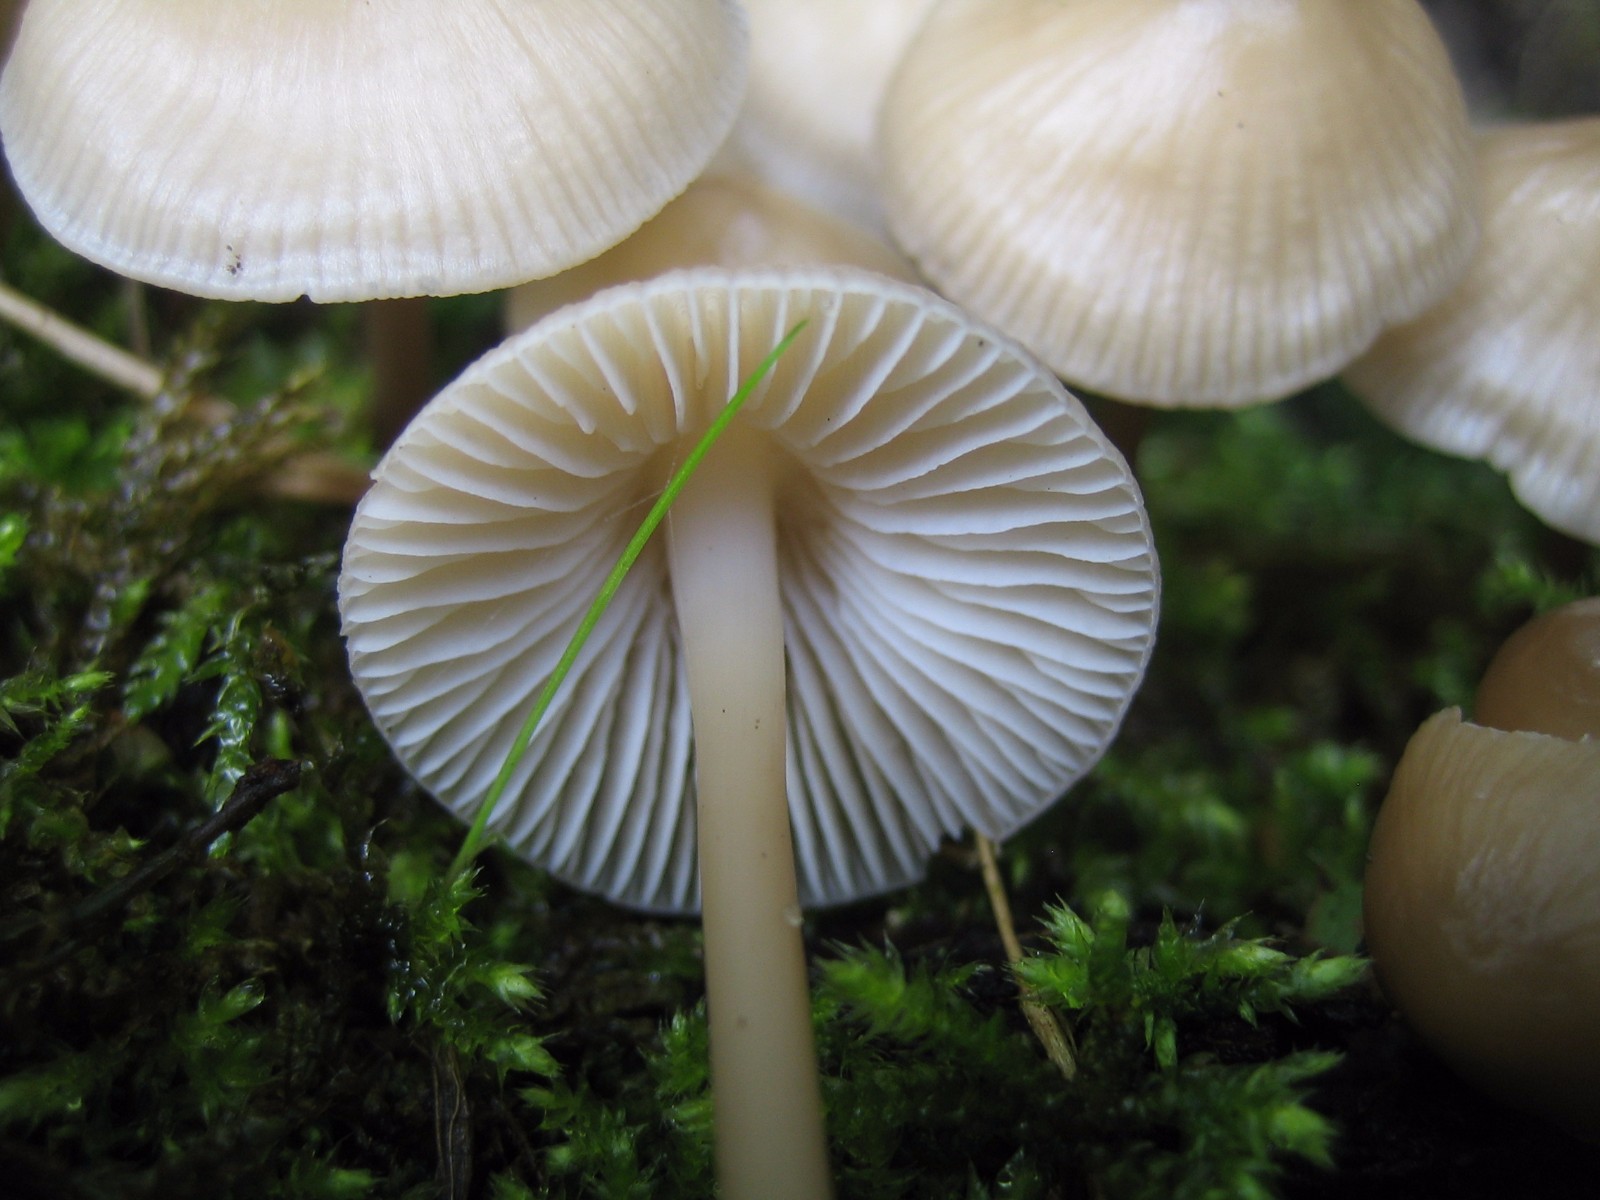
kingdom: Fungi
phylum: Basidiomycota
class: Agaricomycetes
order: Agaricales
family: Mycenaceae
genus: Mycena
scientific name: Mycena galericulata
